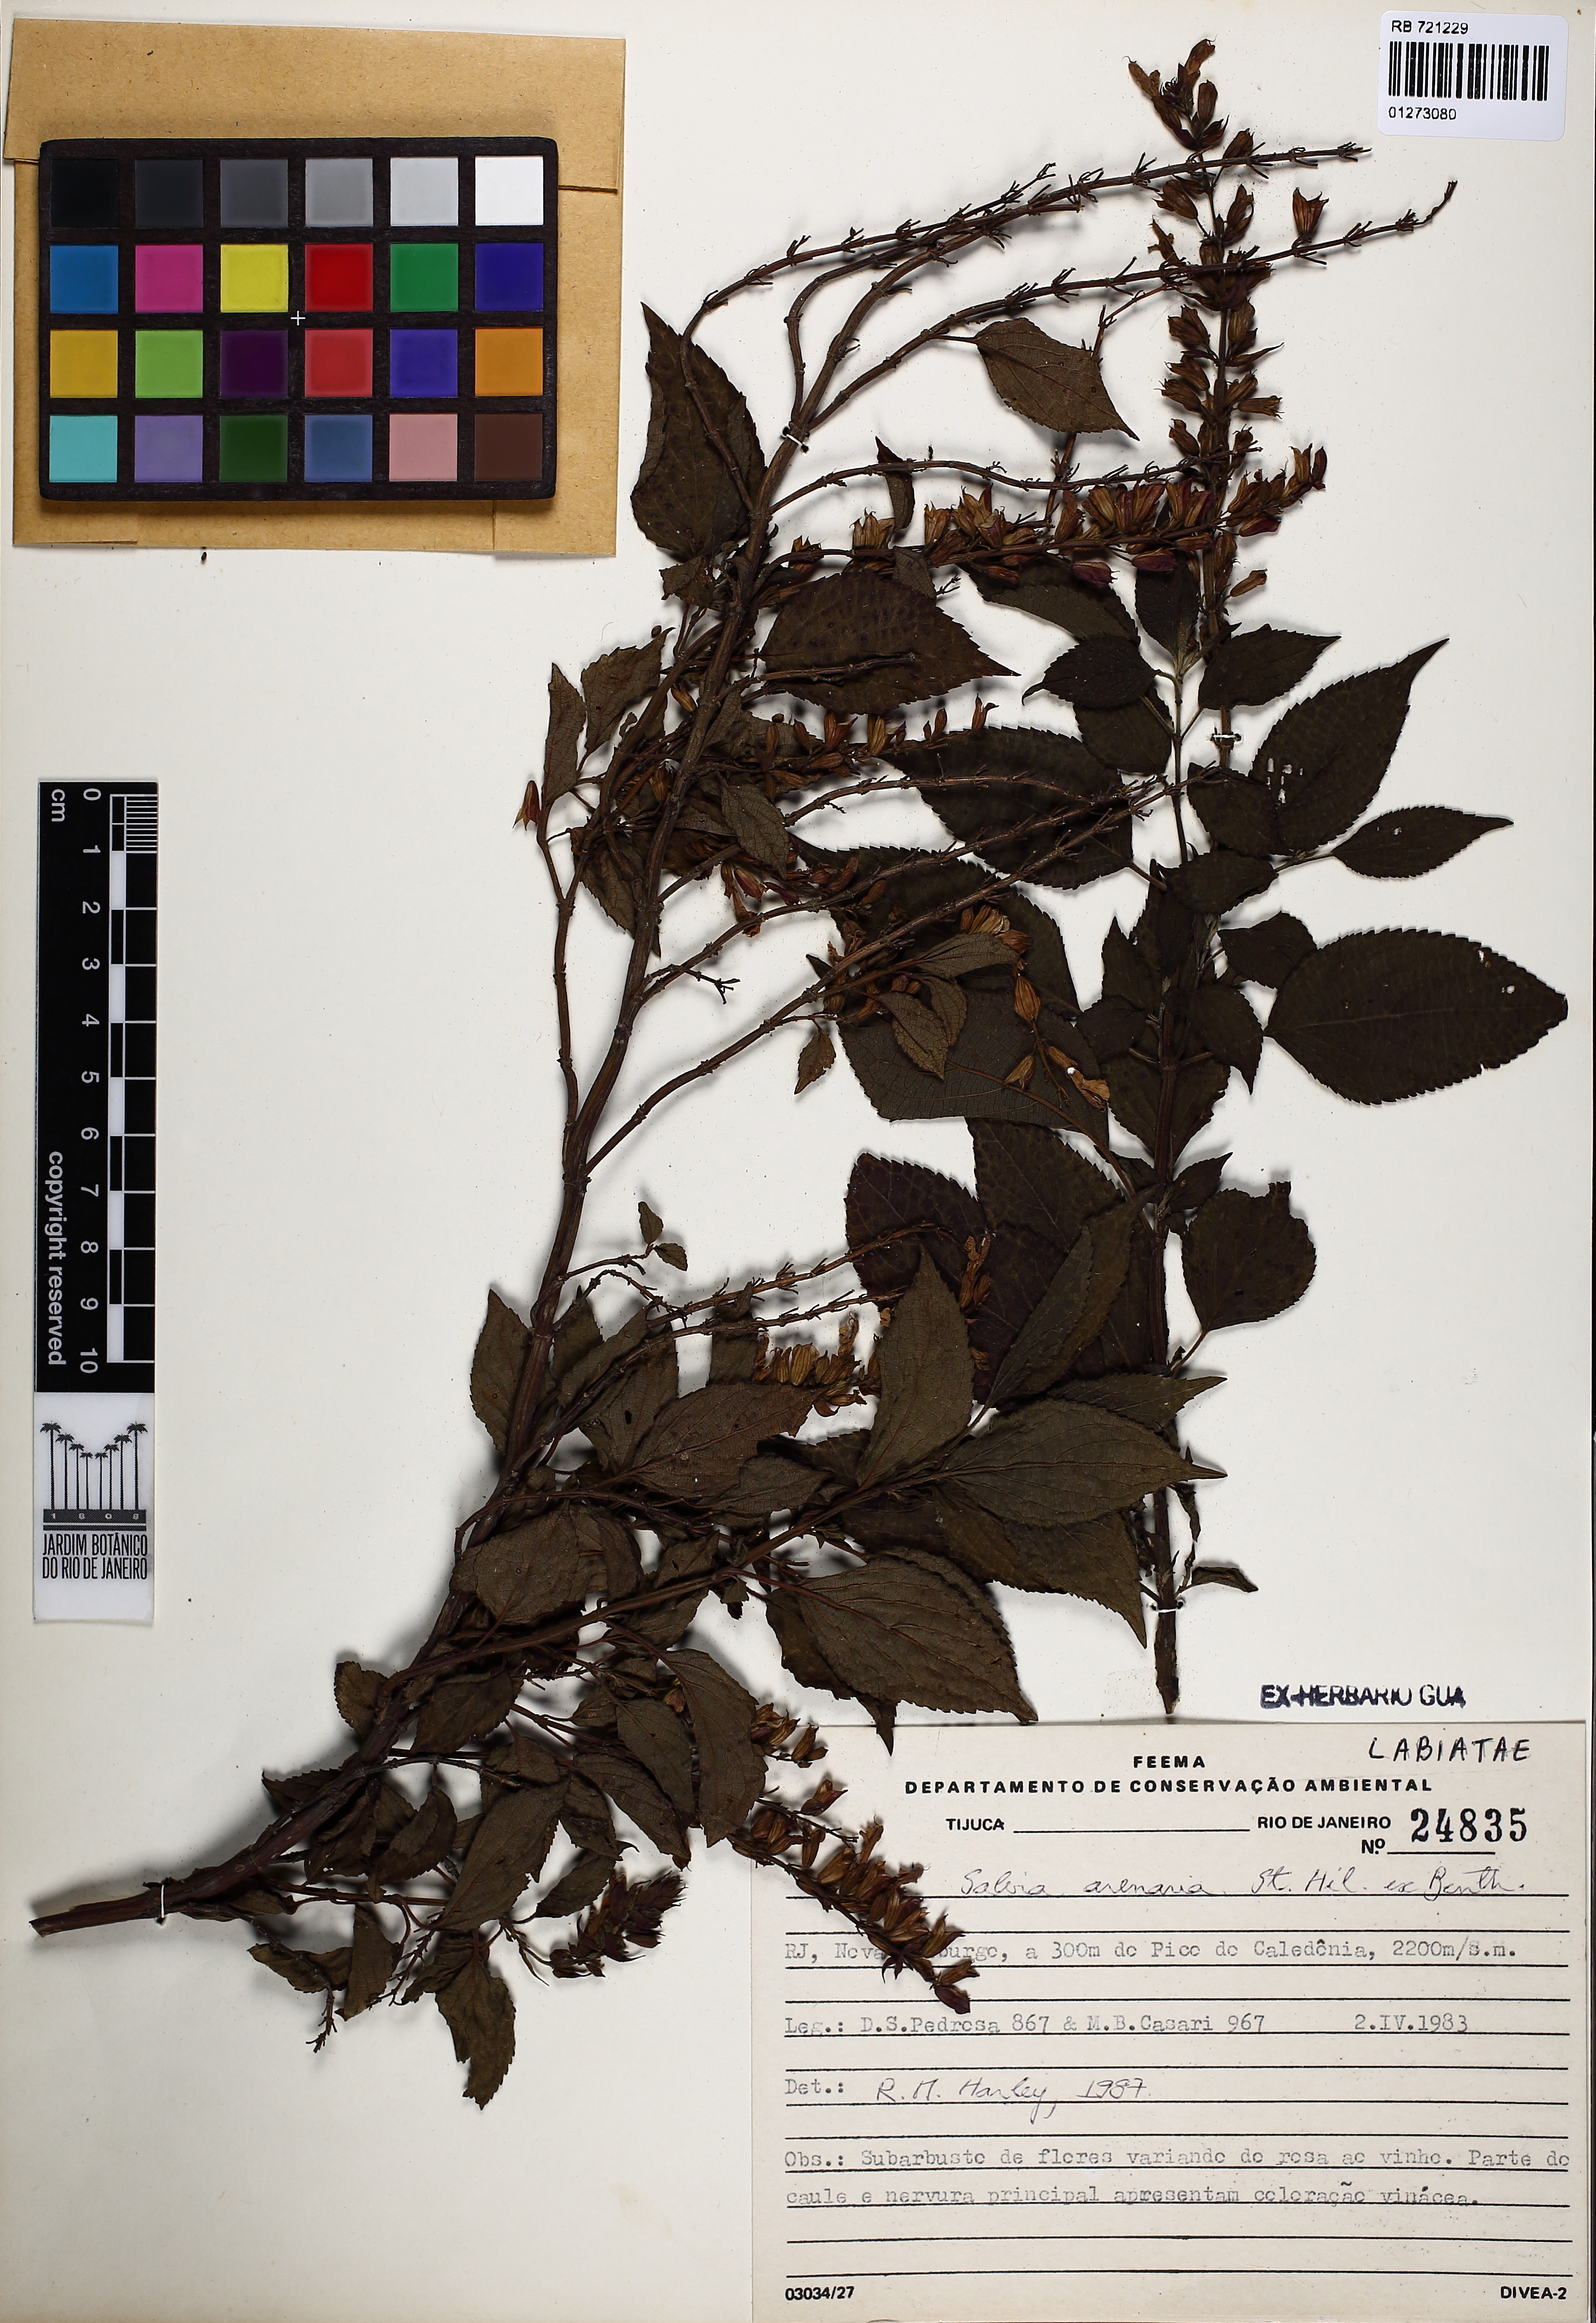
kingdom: Plantae
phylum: Tracheophyta
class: Magnoliopsida
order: Lamiales
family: Lamiaceae
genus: Salvia
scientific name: Salvia arenaria
